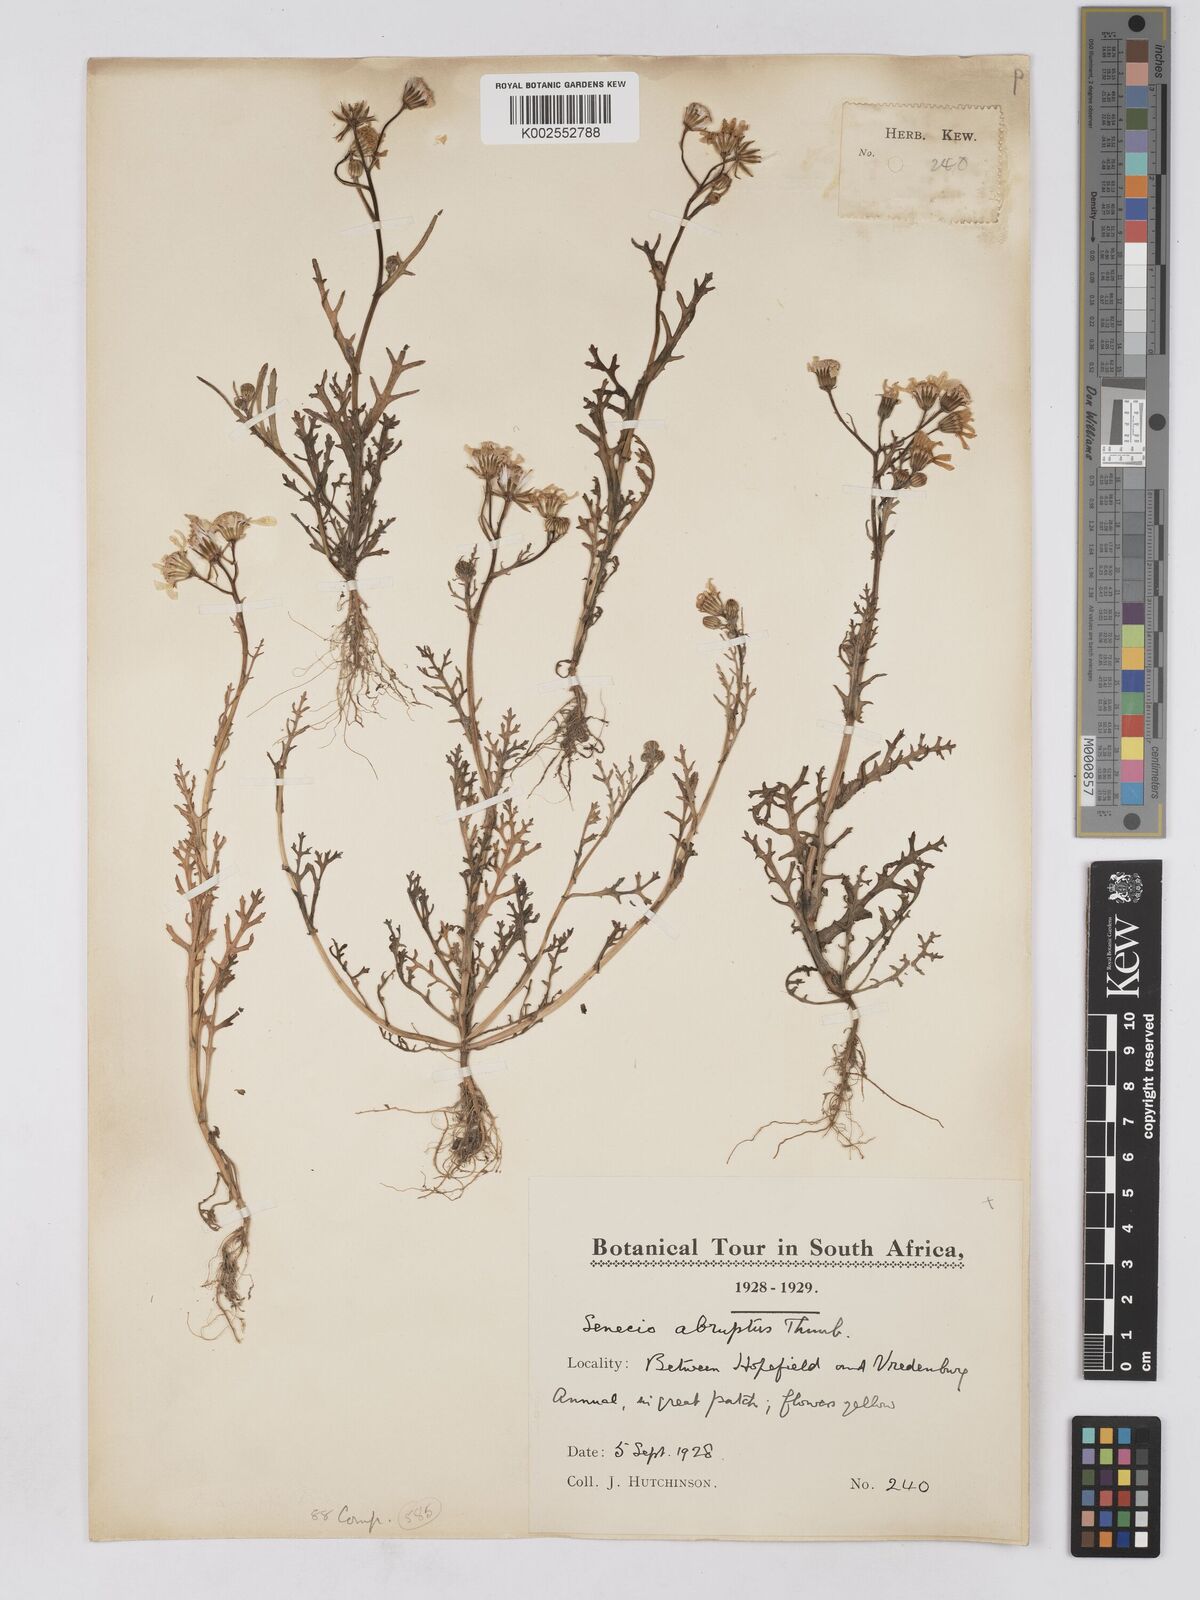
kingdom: Plantae
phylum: Tracheophyta
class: Magnoliopsida
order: Asterales
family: Asteraceae
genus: Senecio
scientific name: Senecio abruptus
